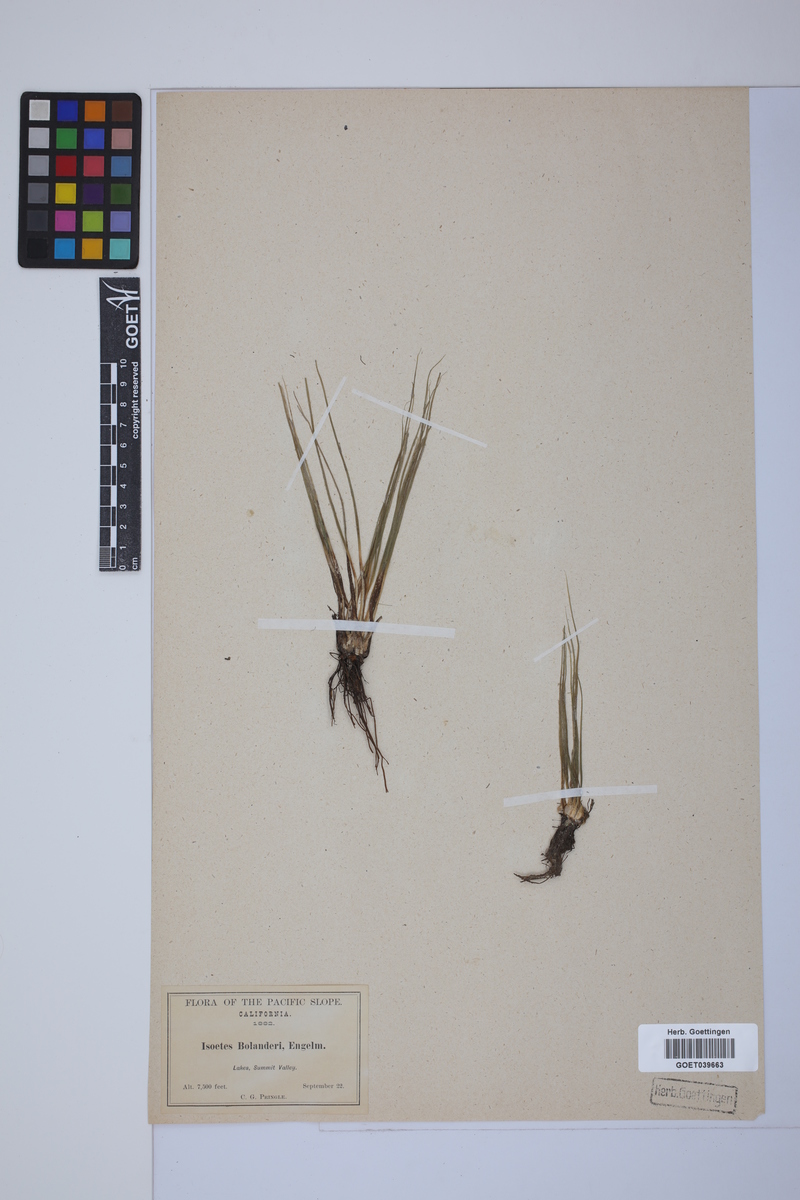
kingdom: Plantae
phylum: Tracheophyta
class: Lycopodiopsida
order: Isoetales
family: Isoetaceae
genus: Isoetes
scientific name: Isoetes bolanderi
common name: Bolander's quillwort
